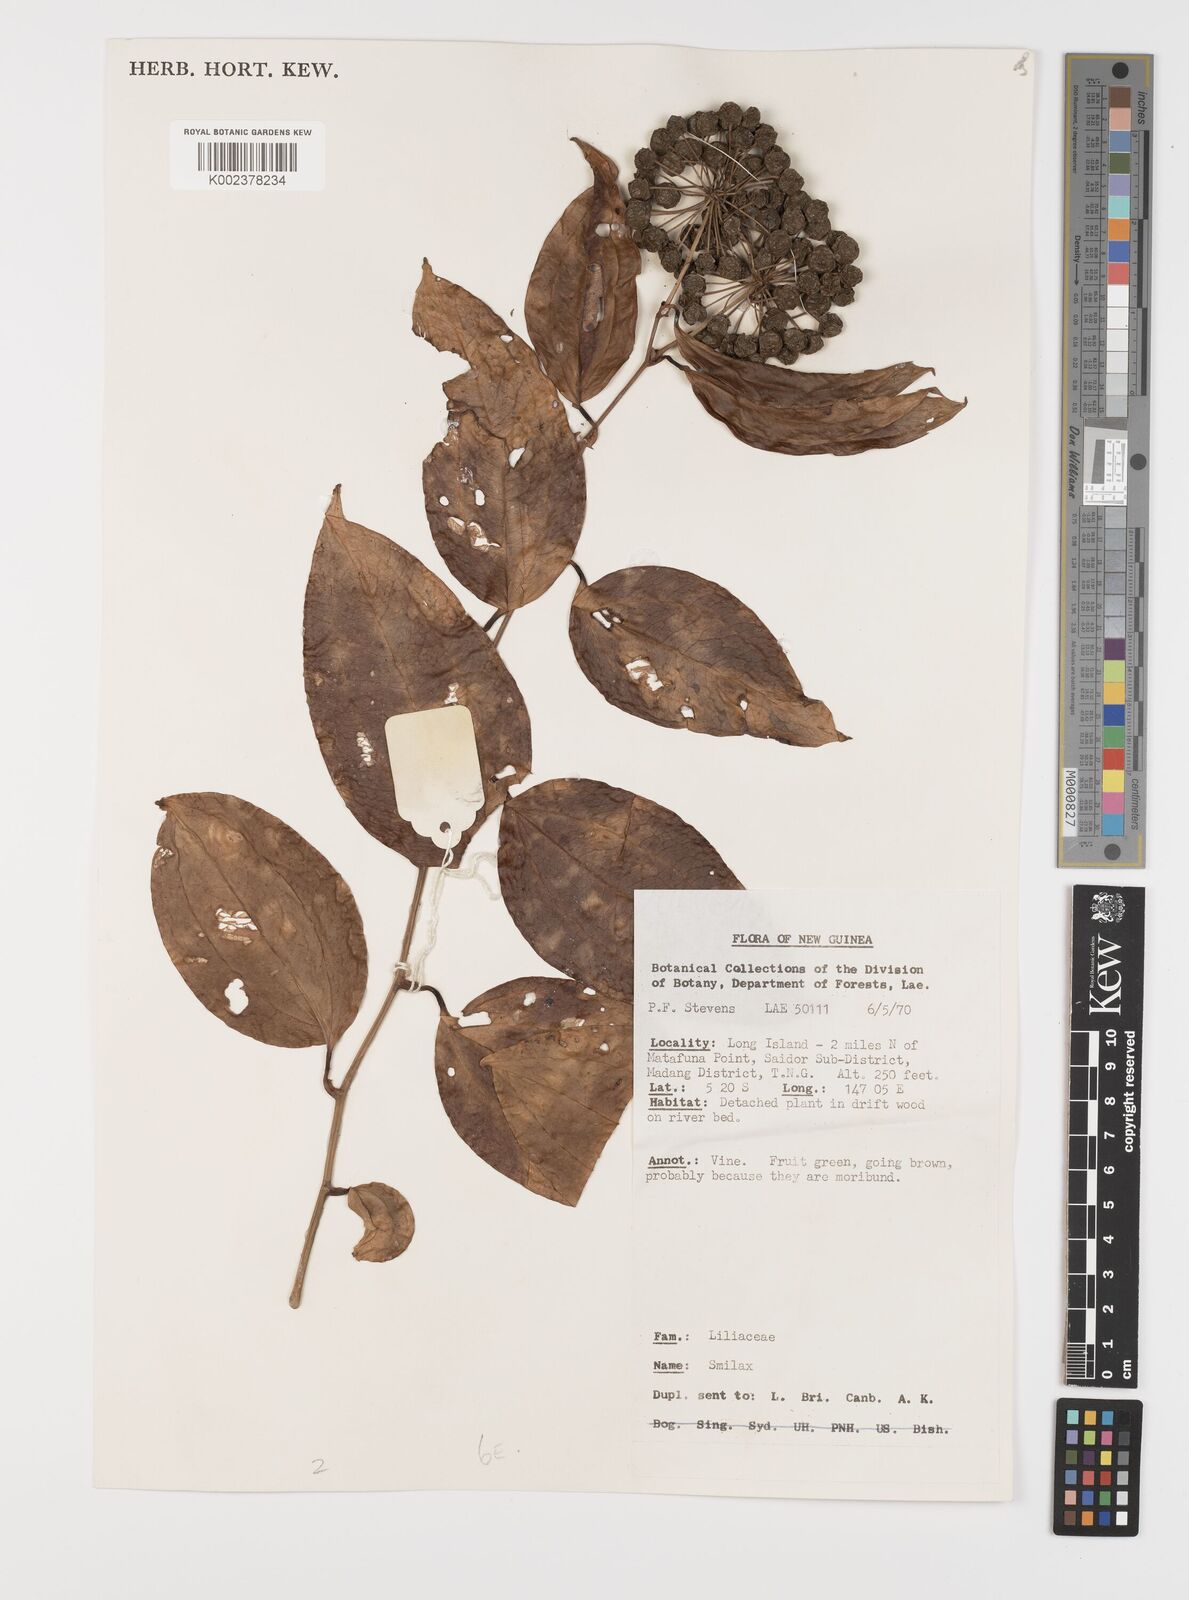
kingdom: Plantae
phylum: Tracheophyta
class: Liliopsida
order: Liliales
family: Smilacaceae
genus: Smilax
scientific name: Smilax
